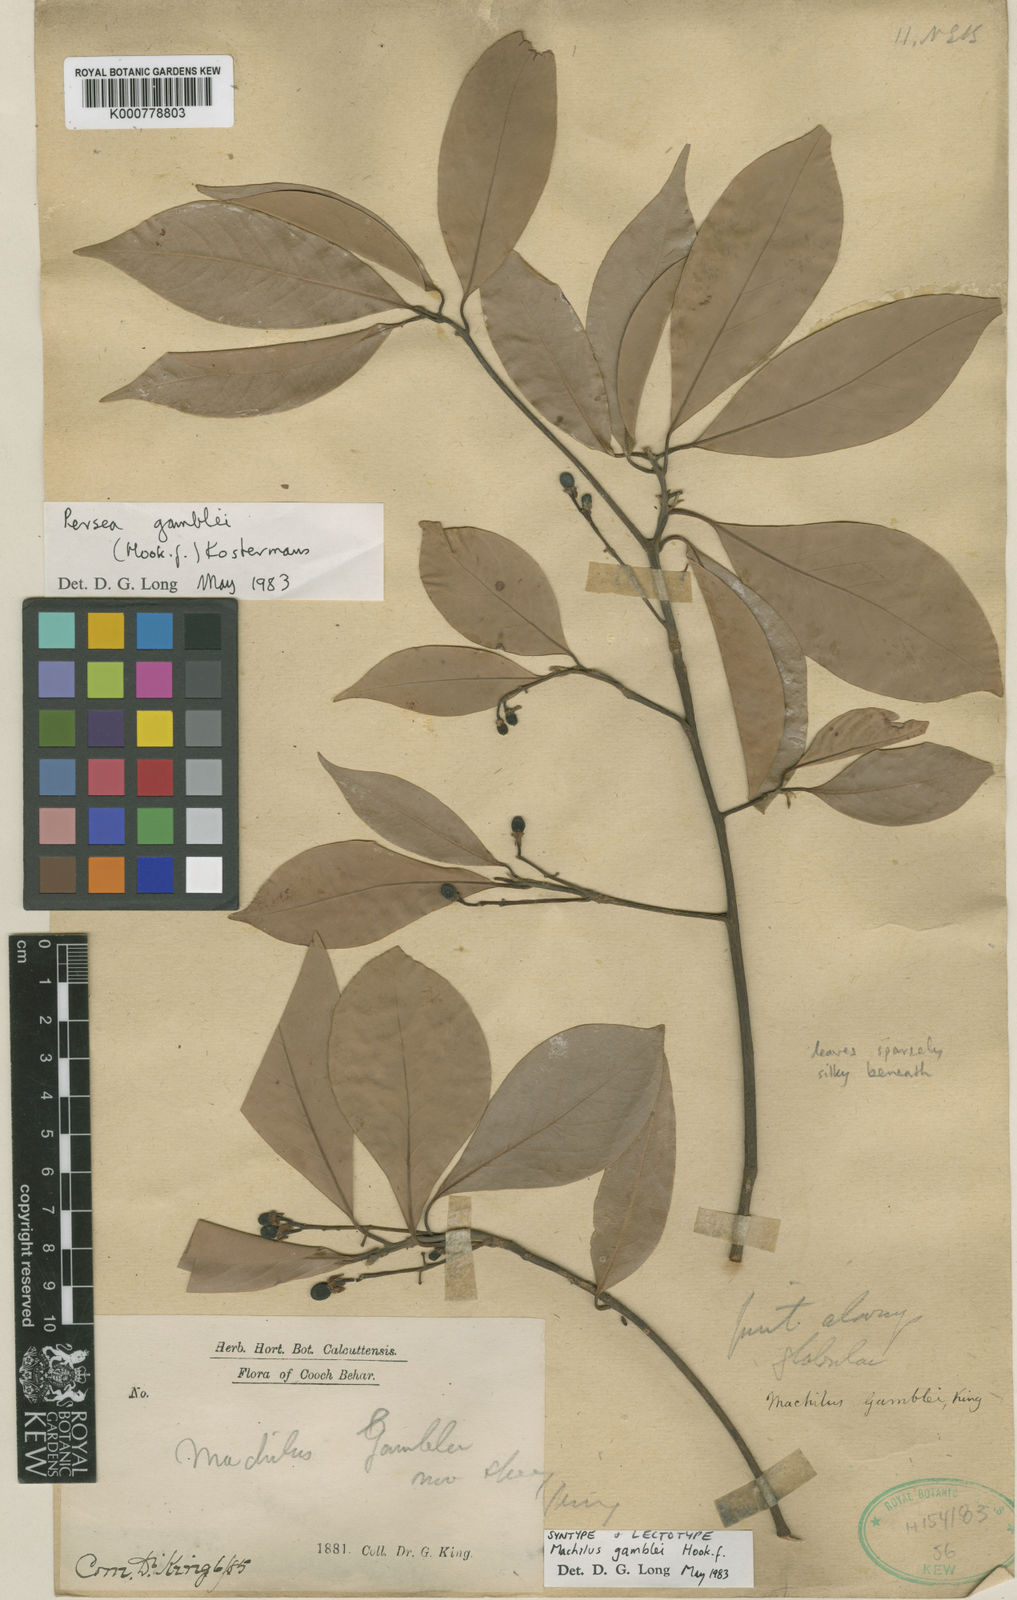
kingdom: Plantae
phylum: Tracheophyta
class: Magnoliopsida
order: Laurales
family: Lauraceae
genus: Machilus
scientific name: Machilus gamblei
